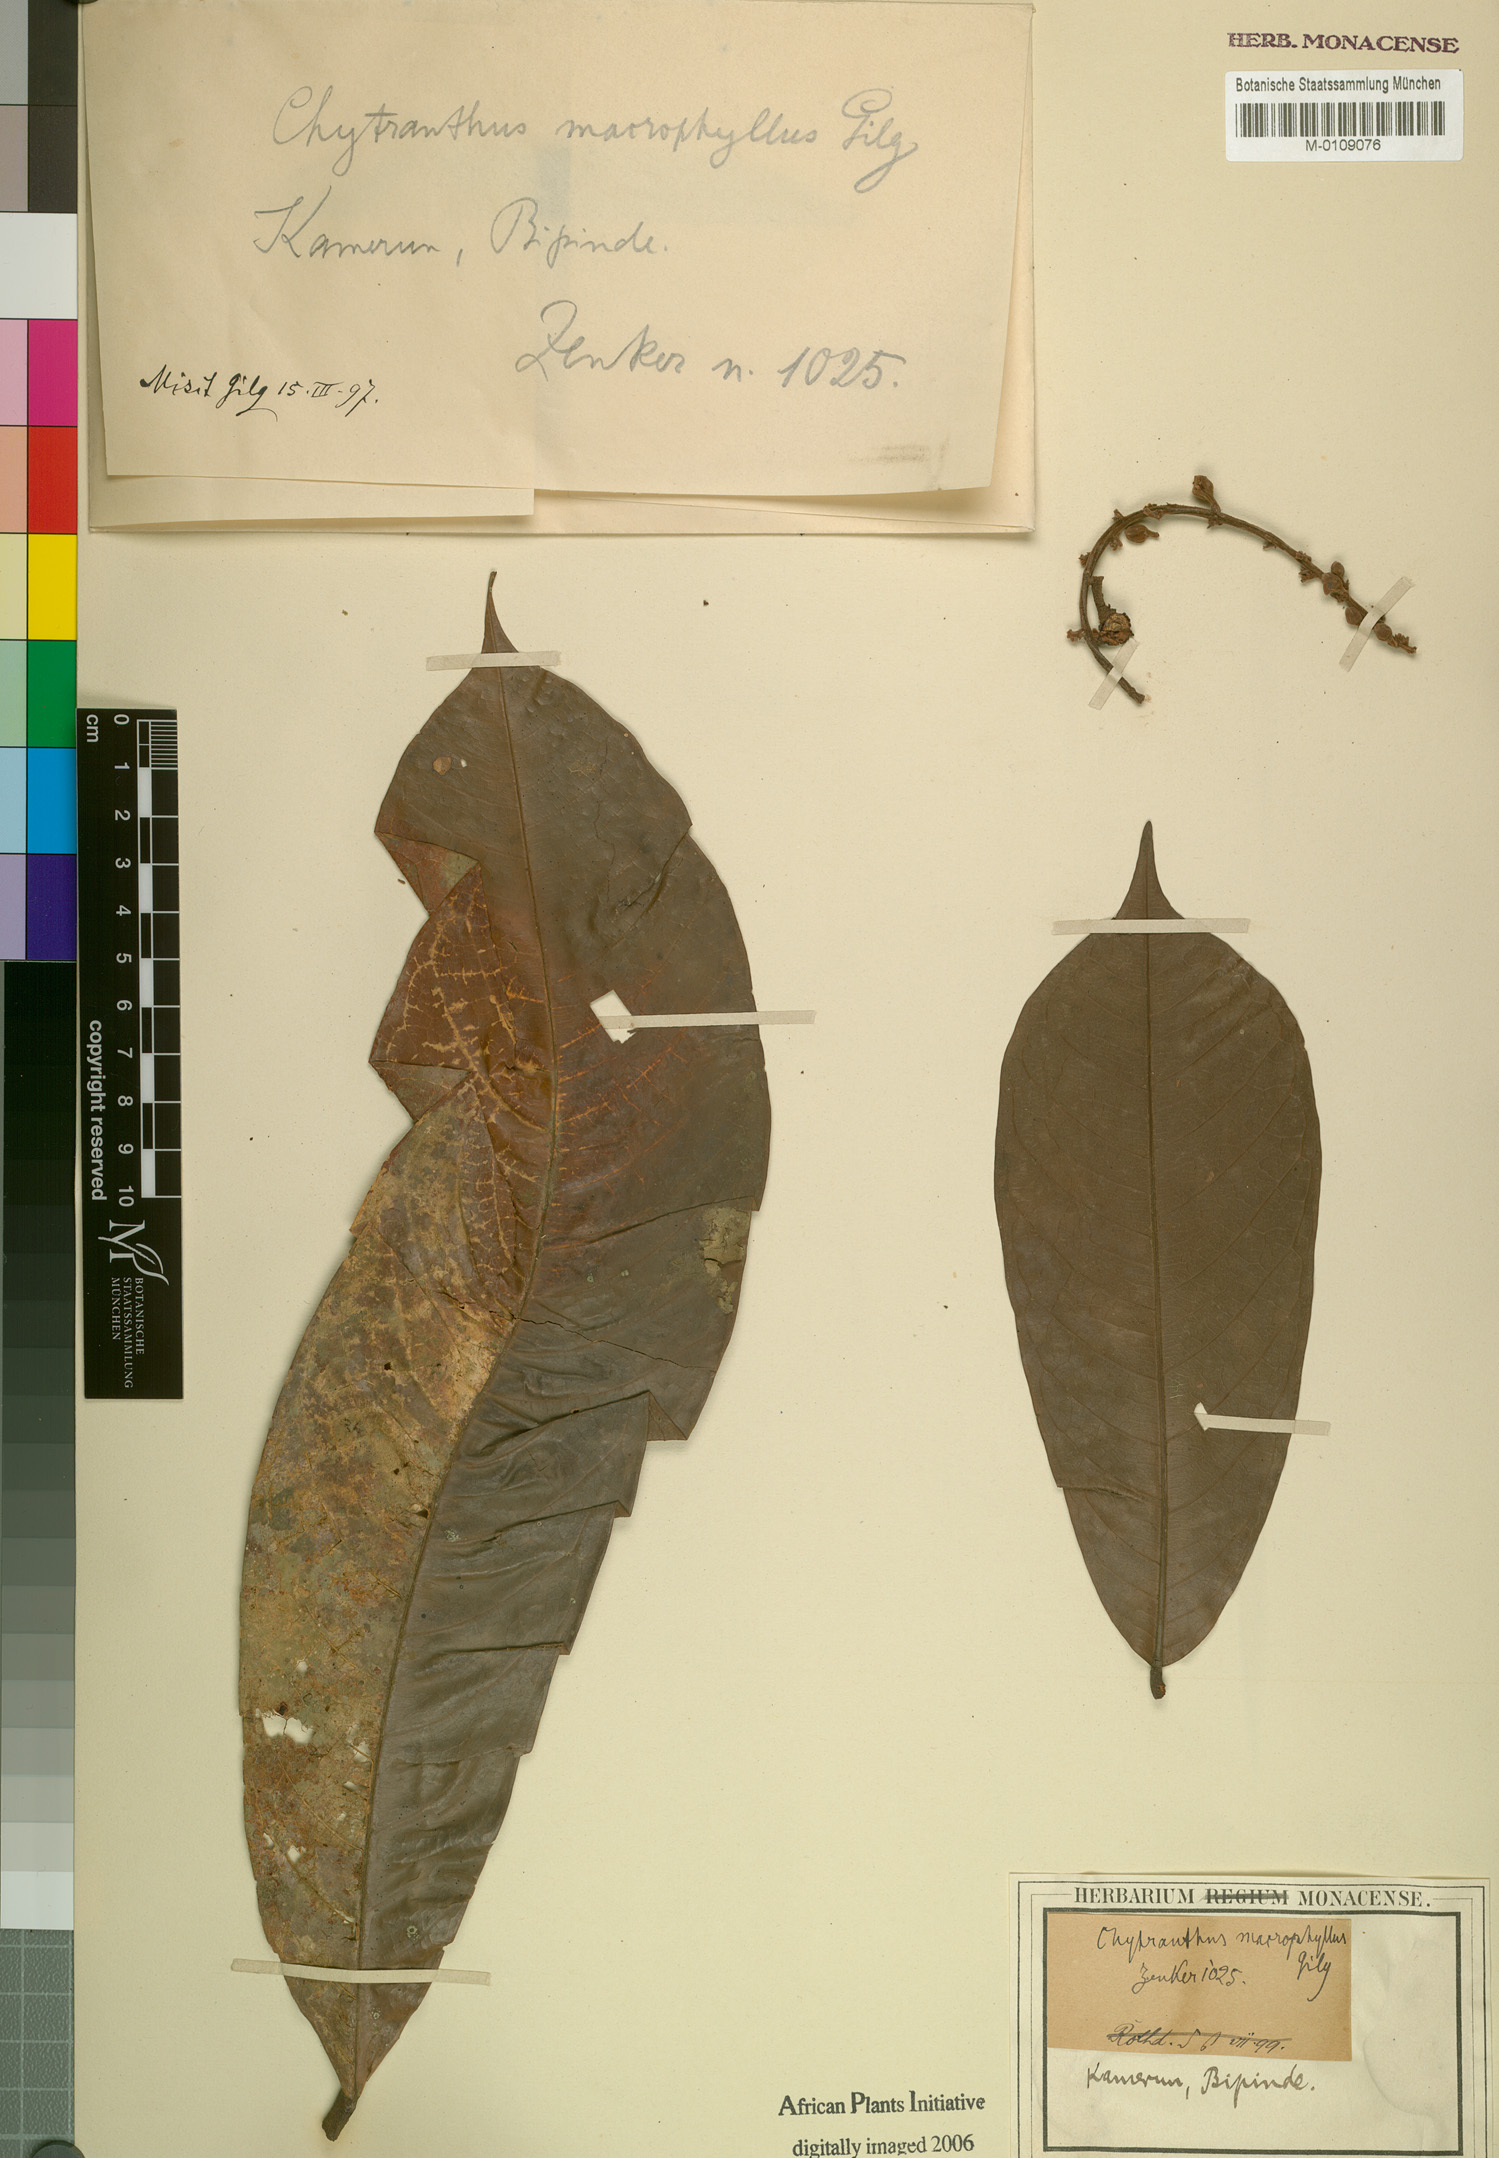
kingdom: Plantae
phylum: Tracheophyta
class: Magnoliopsida
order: Sapindales
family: Sapindaceae
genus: Chytranthus
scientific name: Chytranthus macrophyllus
